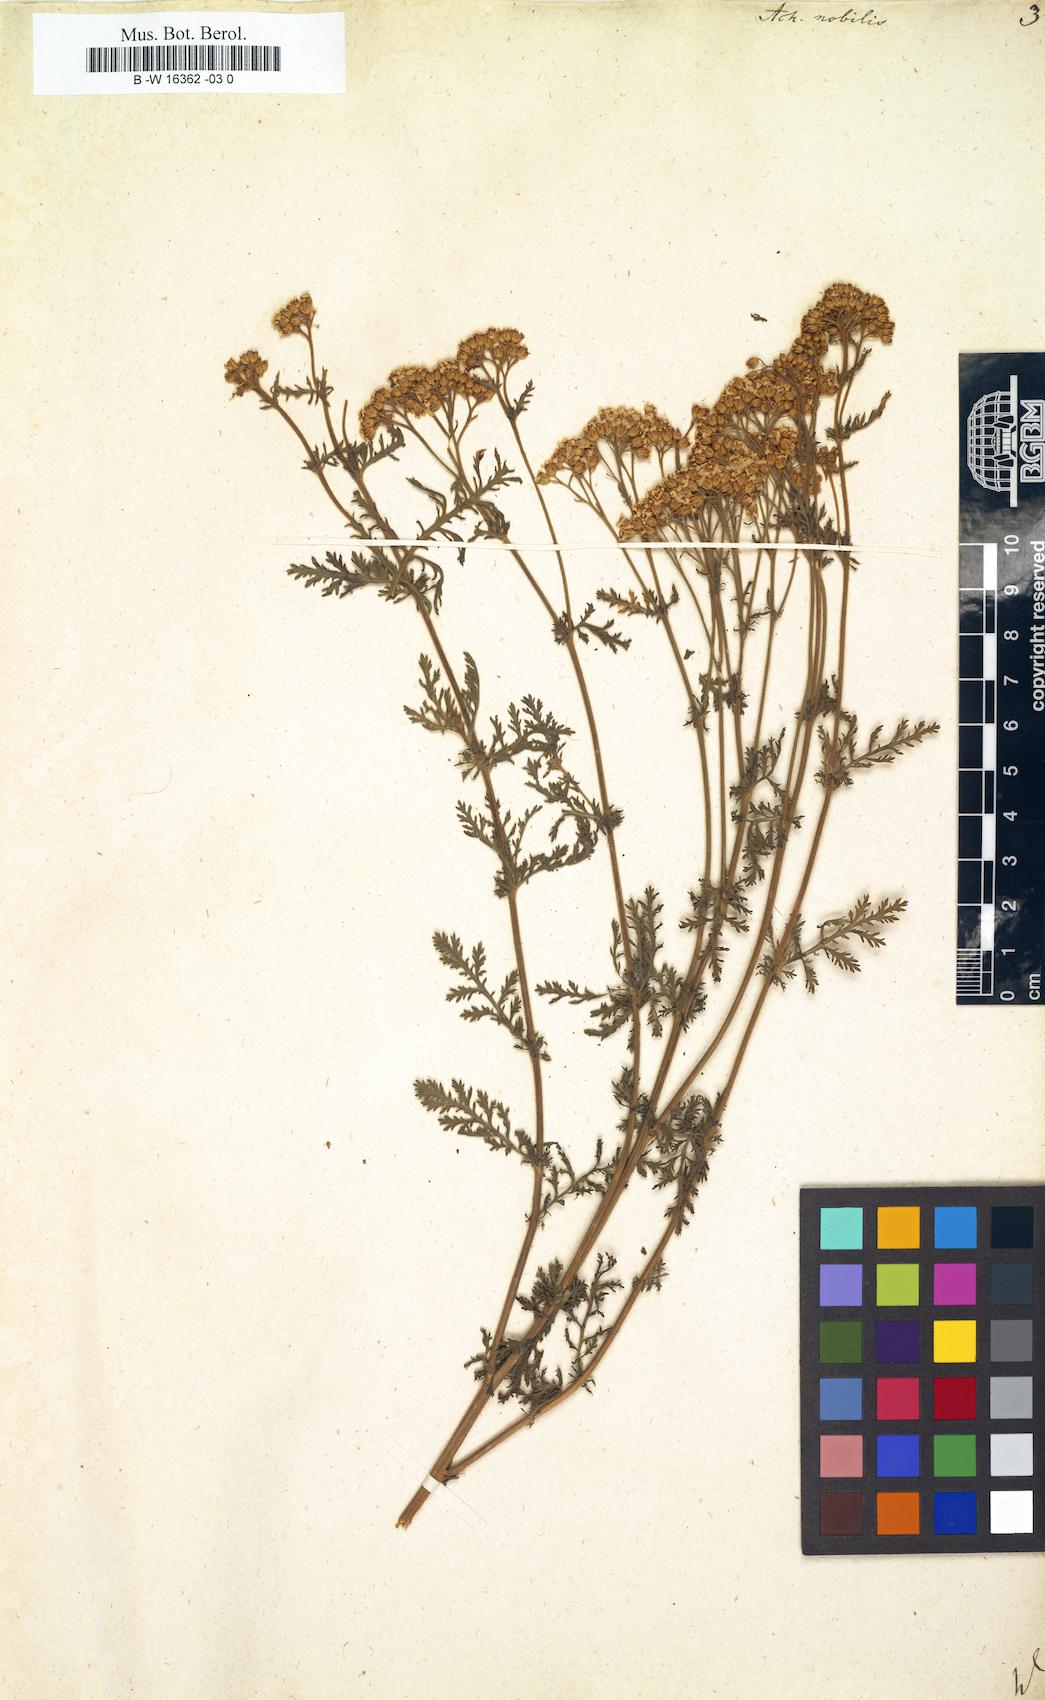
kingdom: Plantae
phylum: Tracheophyta
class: Magnoliopsida
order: Asterales
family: Asteraceae
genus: Achillea
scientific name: Achillea nobilis
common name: Noble yarrow
